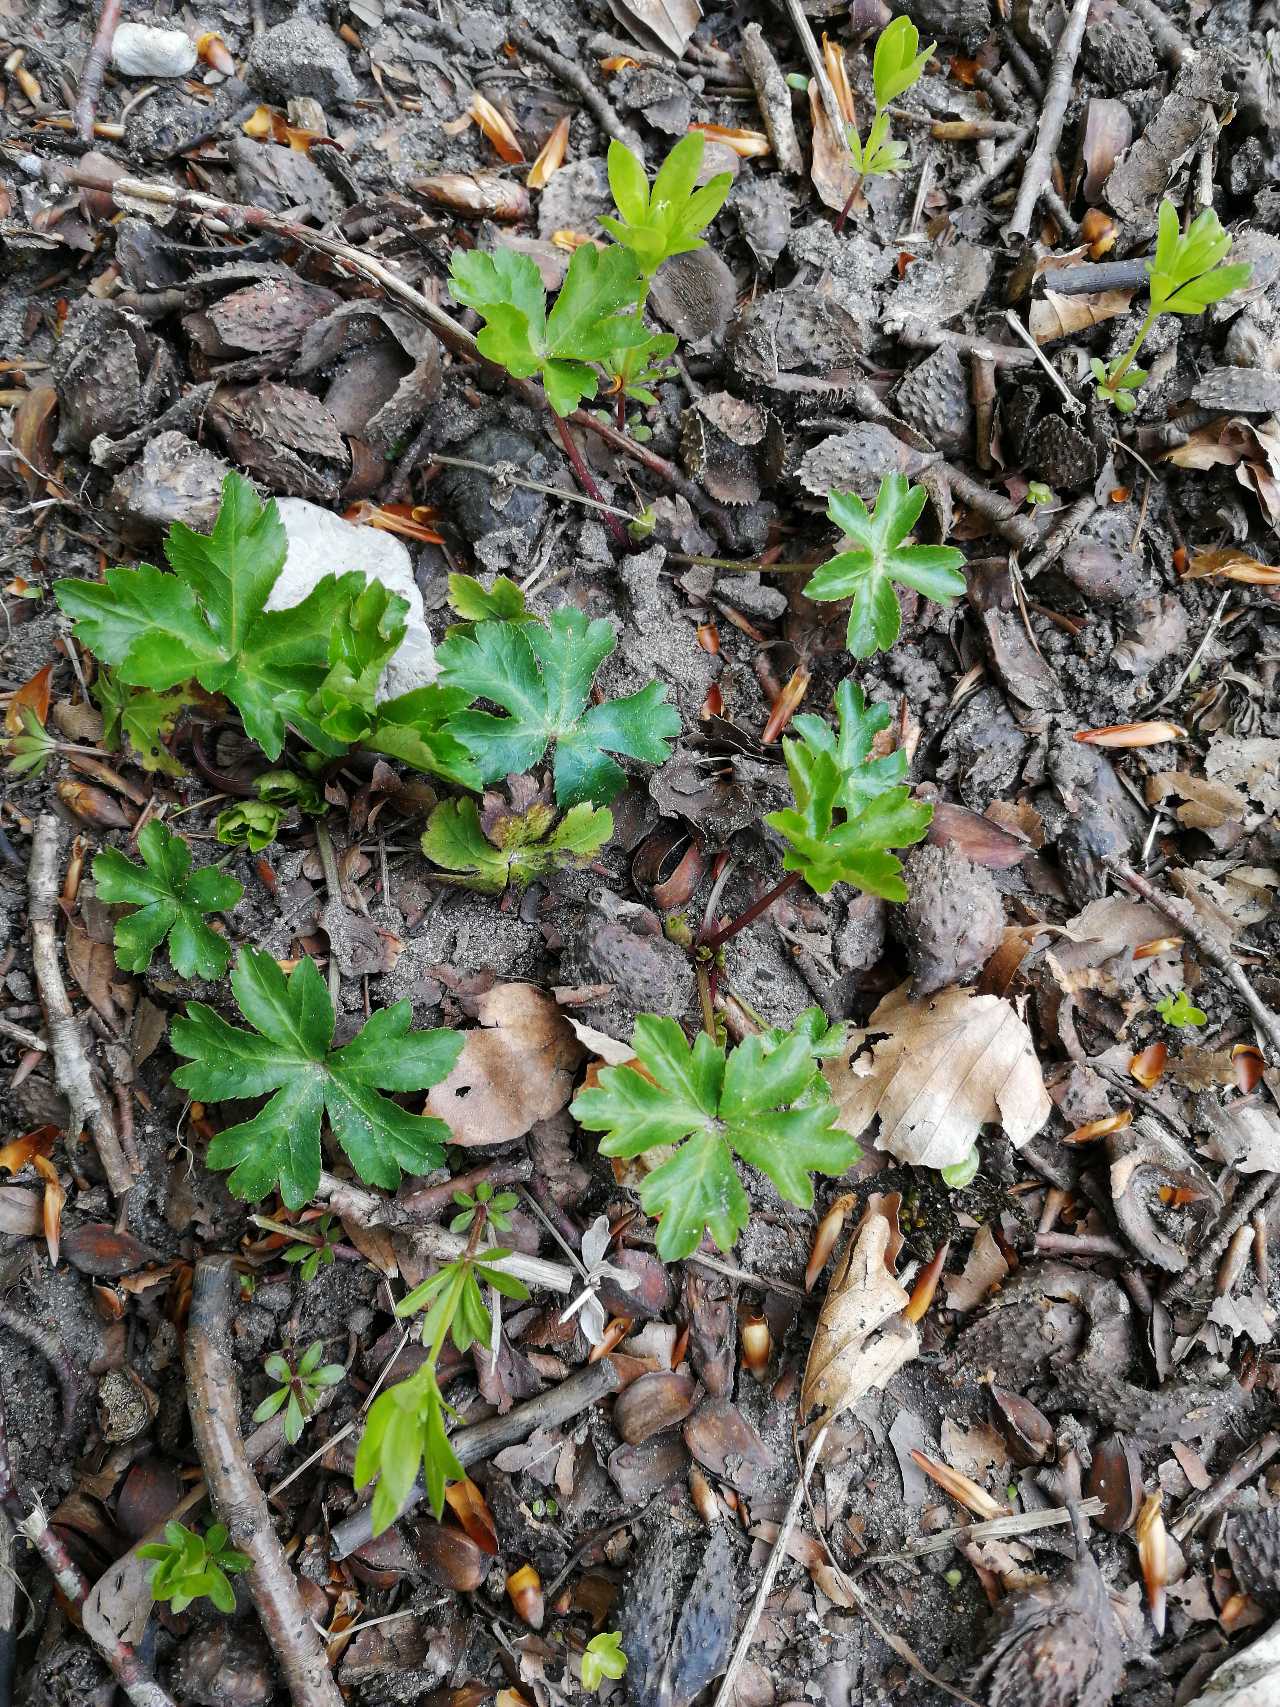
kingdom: Plantae
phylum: Tracheophyta
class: Magnoliopsida
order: Apiales
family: Apiaceae
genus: Sanicula
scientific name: Sanicula europaea
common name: Sanikel
